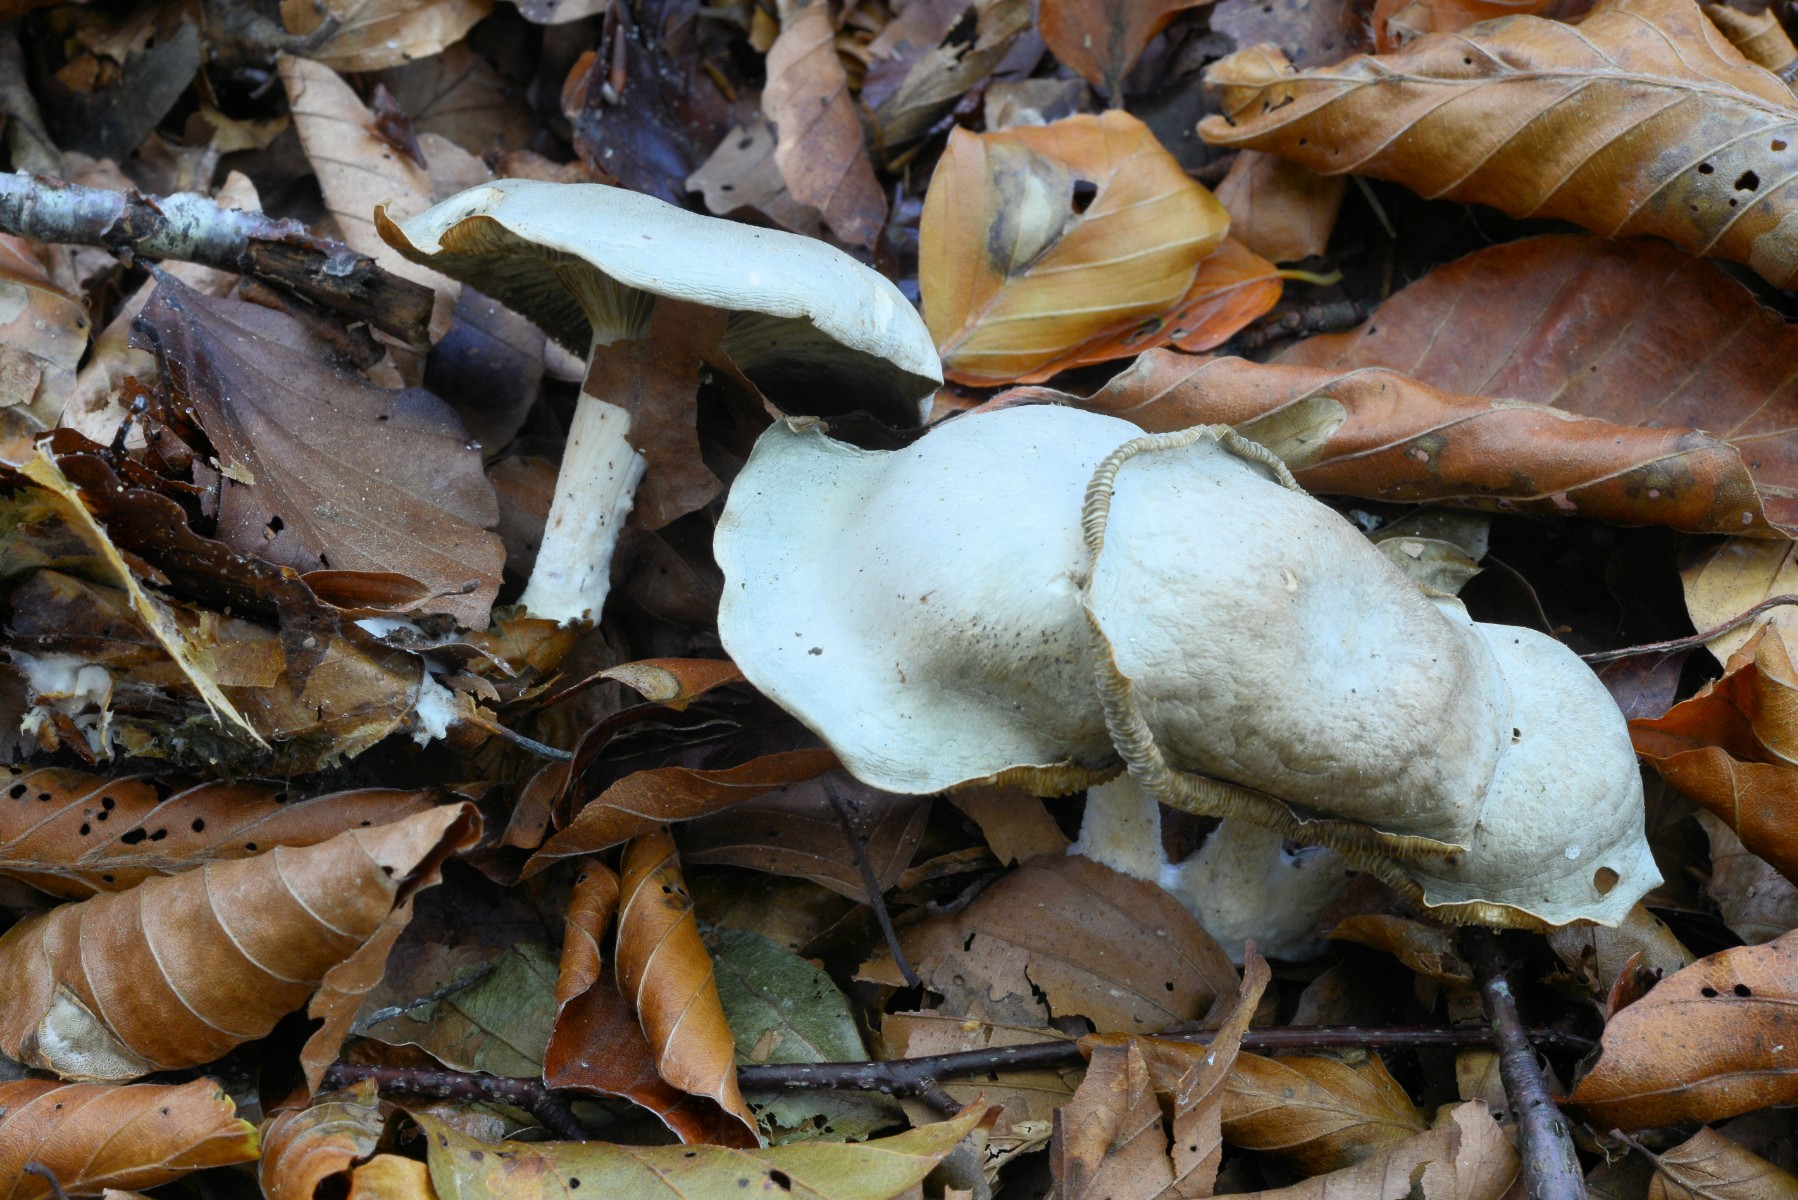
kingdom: Fungi
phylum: Basidiomycota
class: Agaricomycetes
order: Agaricales
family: Tricholomataceae
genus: Clitocybe
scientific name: Clitocybe odora
